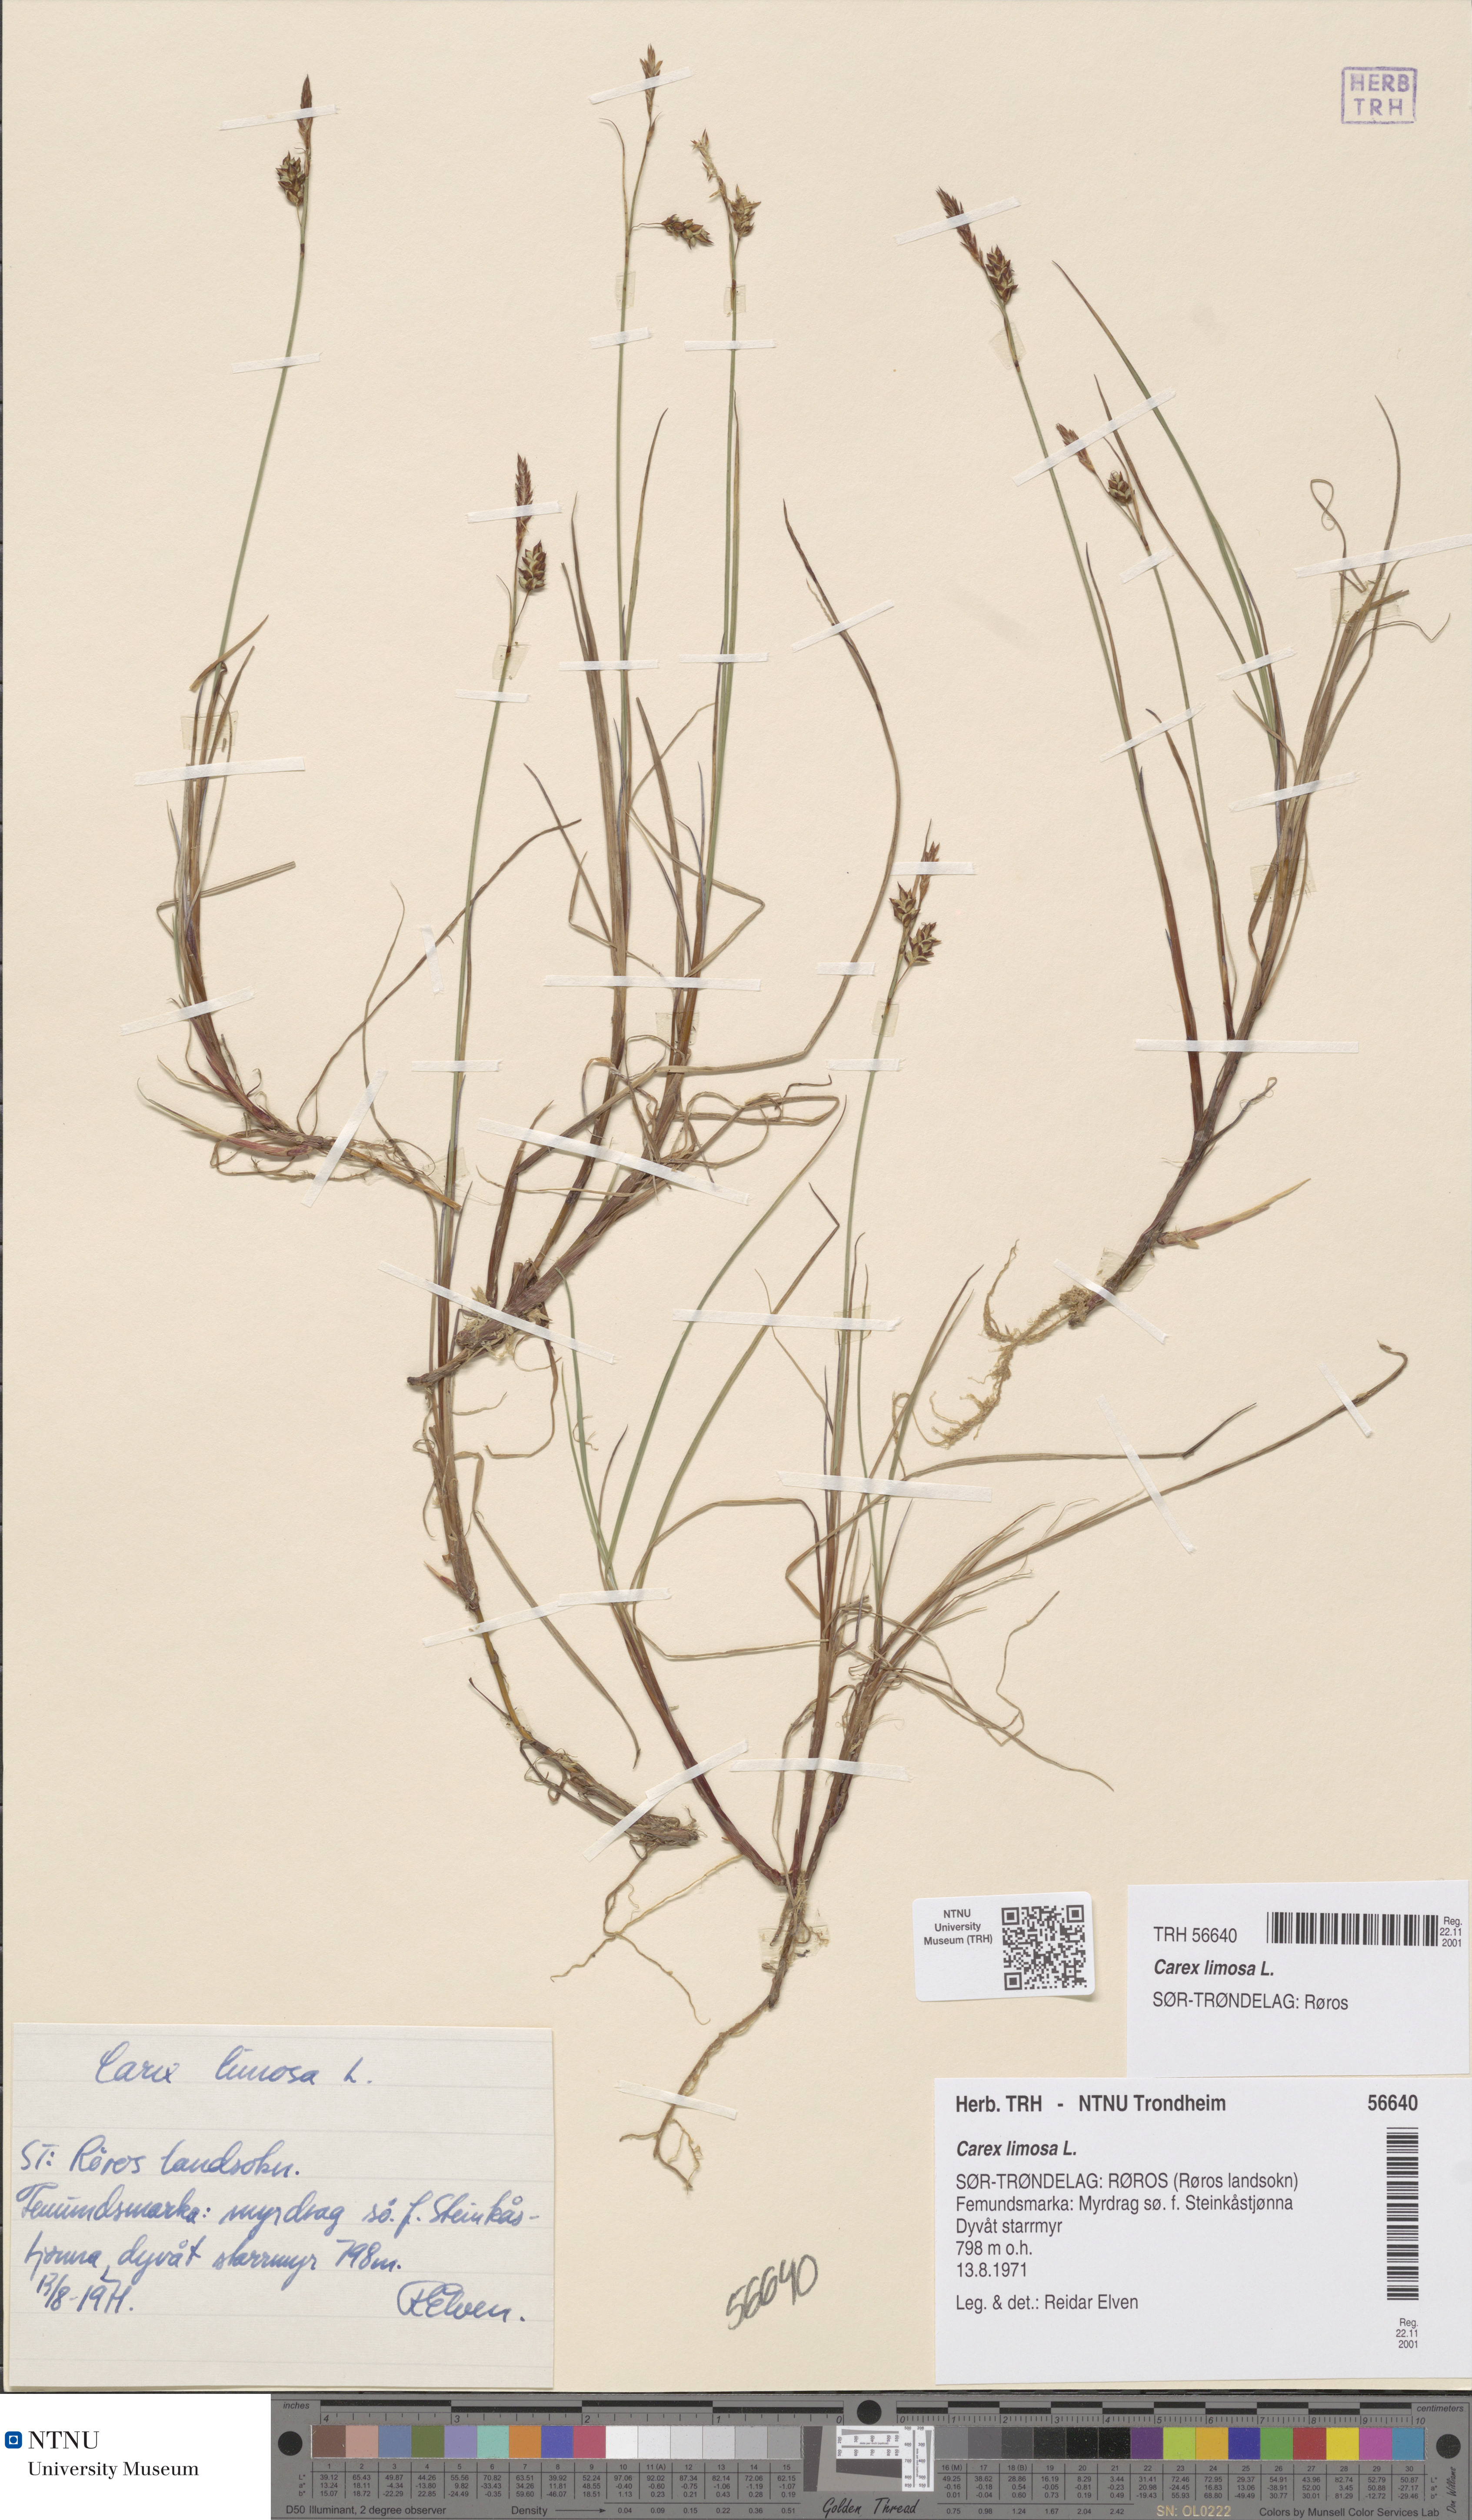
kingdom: Plantae
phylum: Tracheophyta
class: Liliopsida
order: Poales
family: Cyperaceae
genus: Carex
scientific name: Carex limosa
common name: Bog sedge
